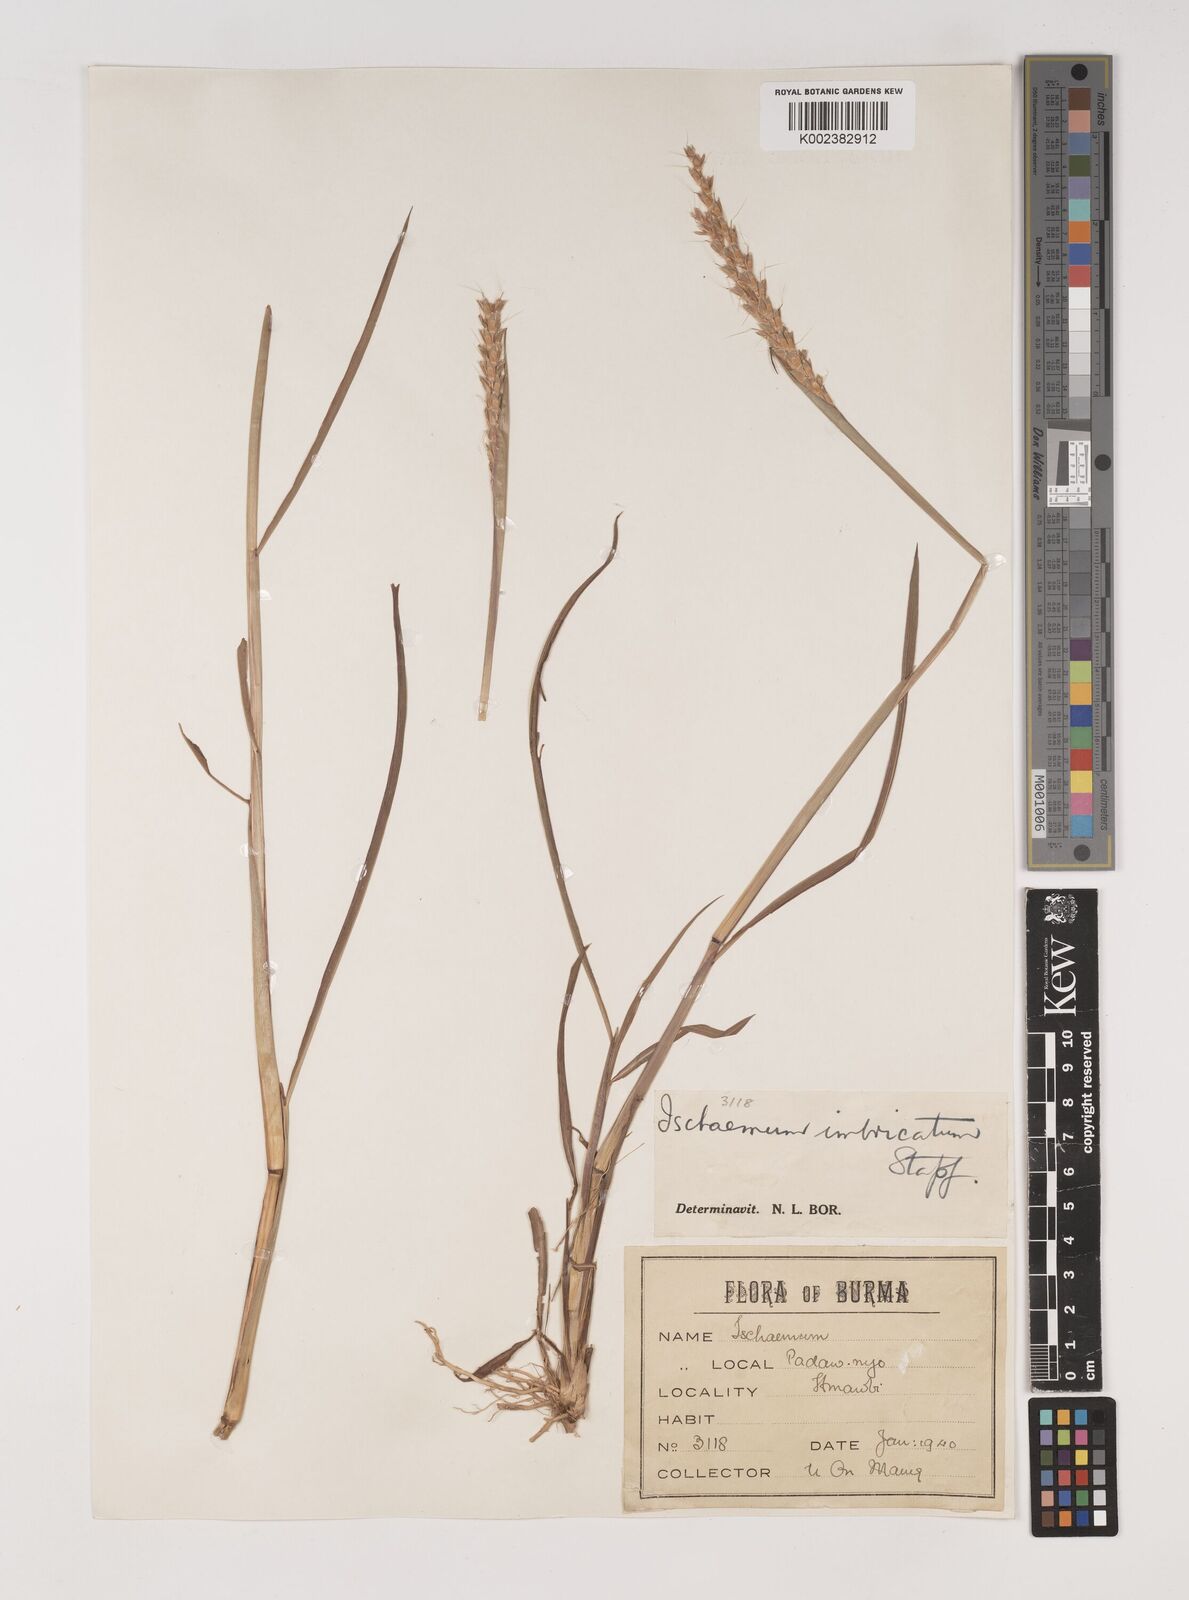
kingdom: Plantae
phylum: Tracheophyta
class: Liliopsida
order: Poales
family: Poaceae
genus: Ischaemum
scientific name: Ischaemum
